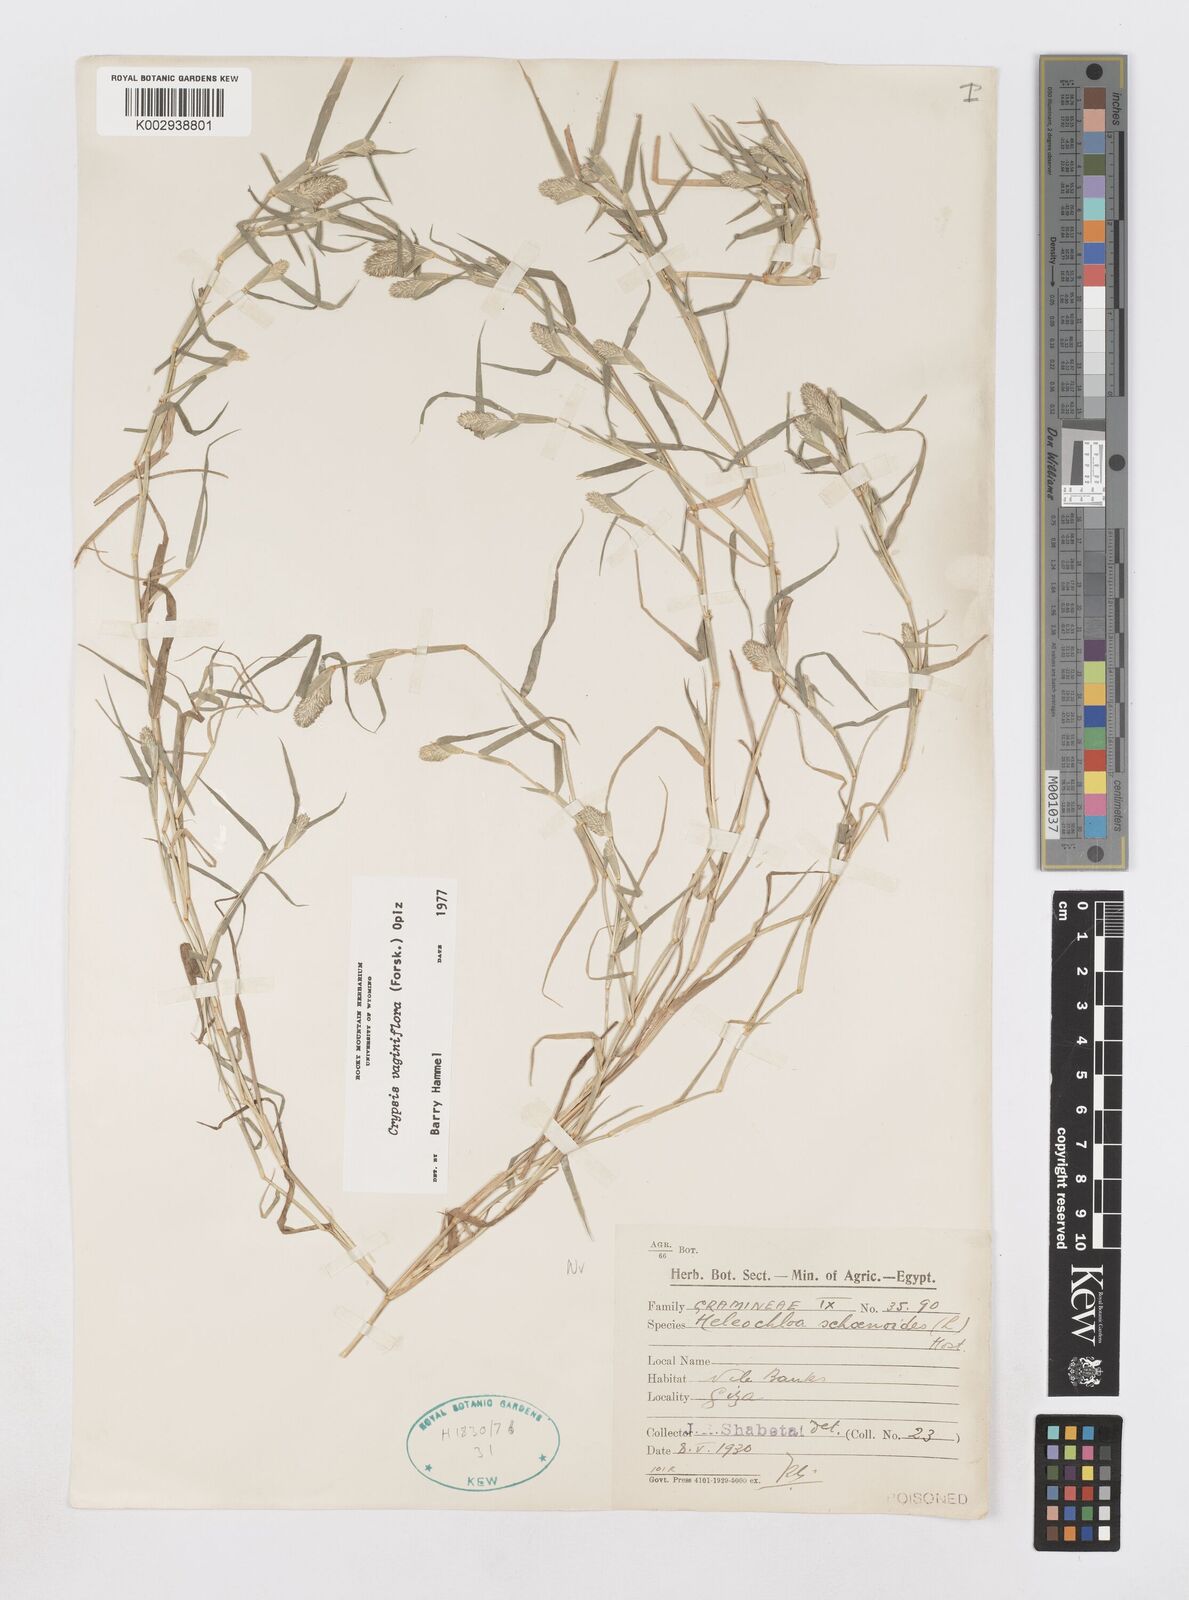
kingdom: Plantae
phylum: Tracheophyta
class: Liliopsida
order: Poales
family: Poaceae
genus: Sporobolus
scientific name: Sporobolus niliacus
